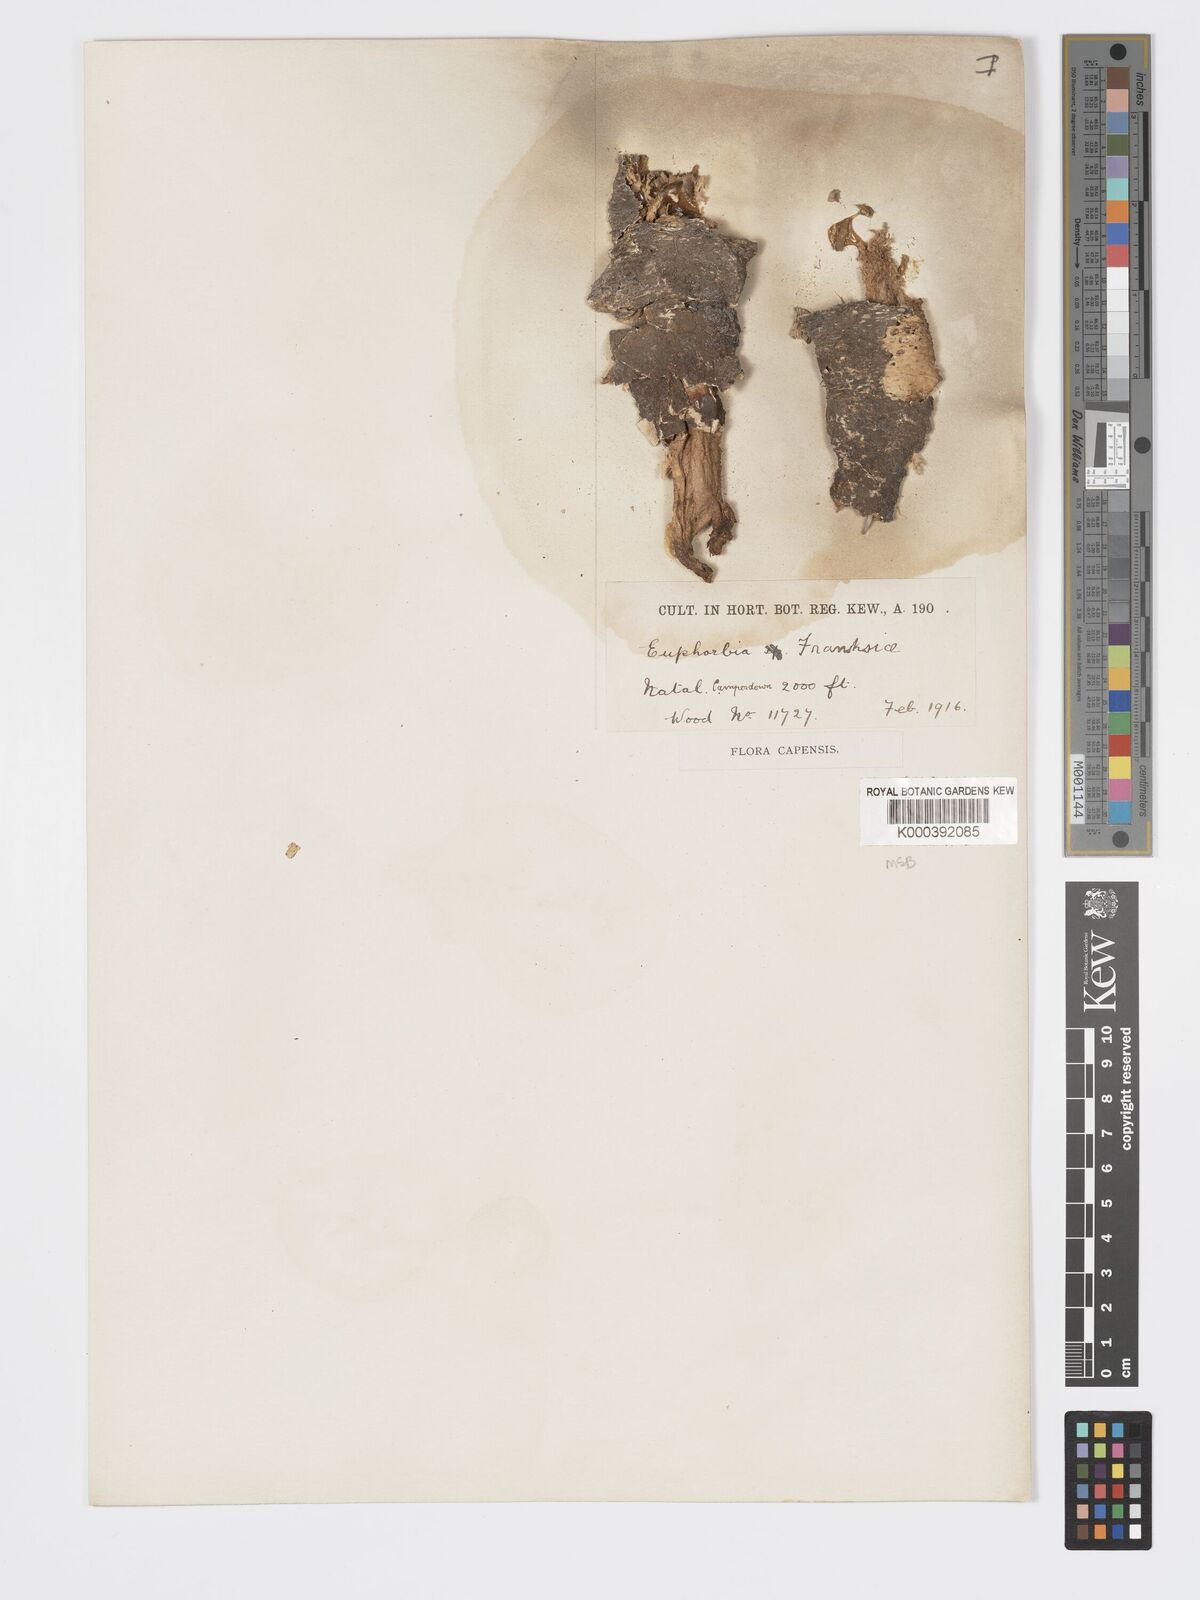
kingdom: Plantae
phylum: Tracheophyta
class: Magnoliopsida
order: Malpighiales
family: Euphorbiaceae
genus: Euphorbia
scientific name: Euphorbia flanaganii
